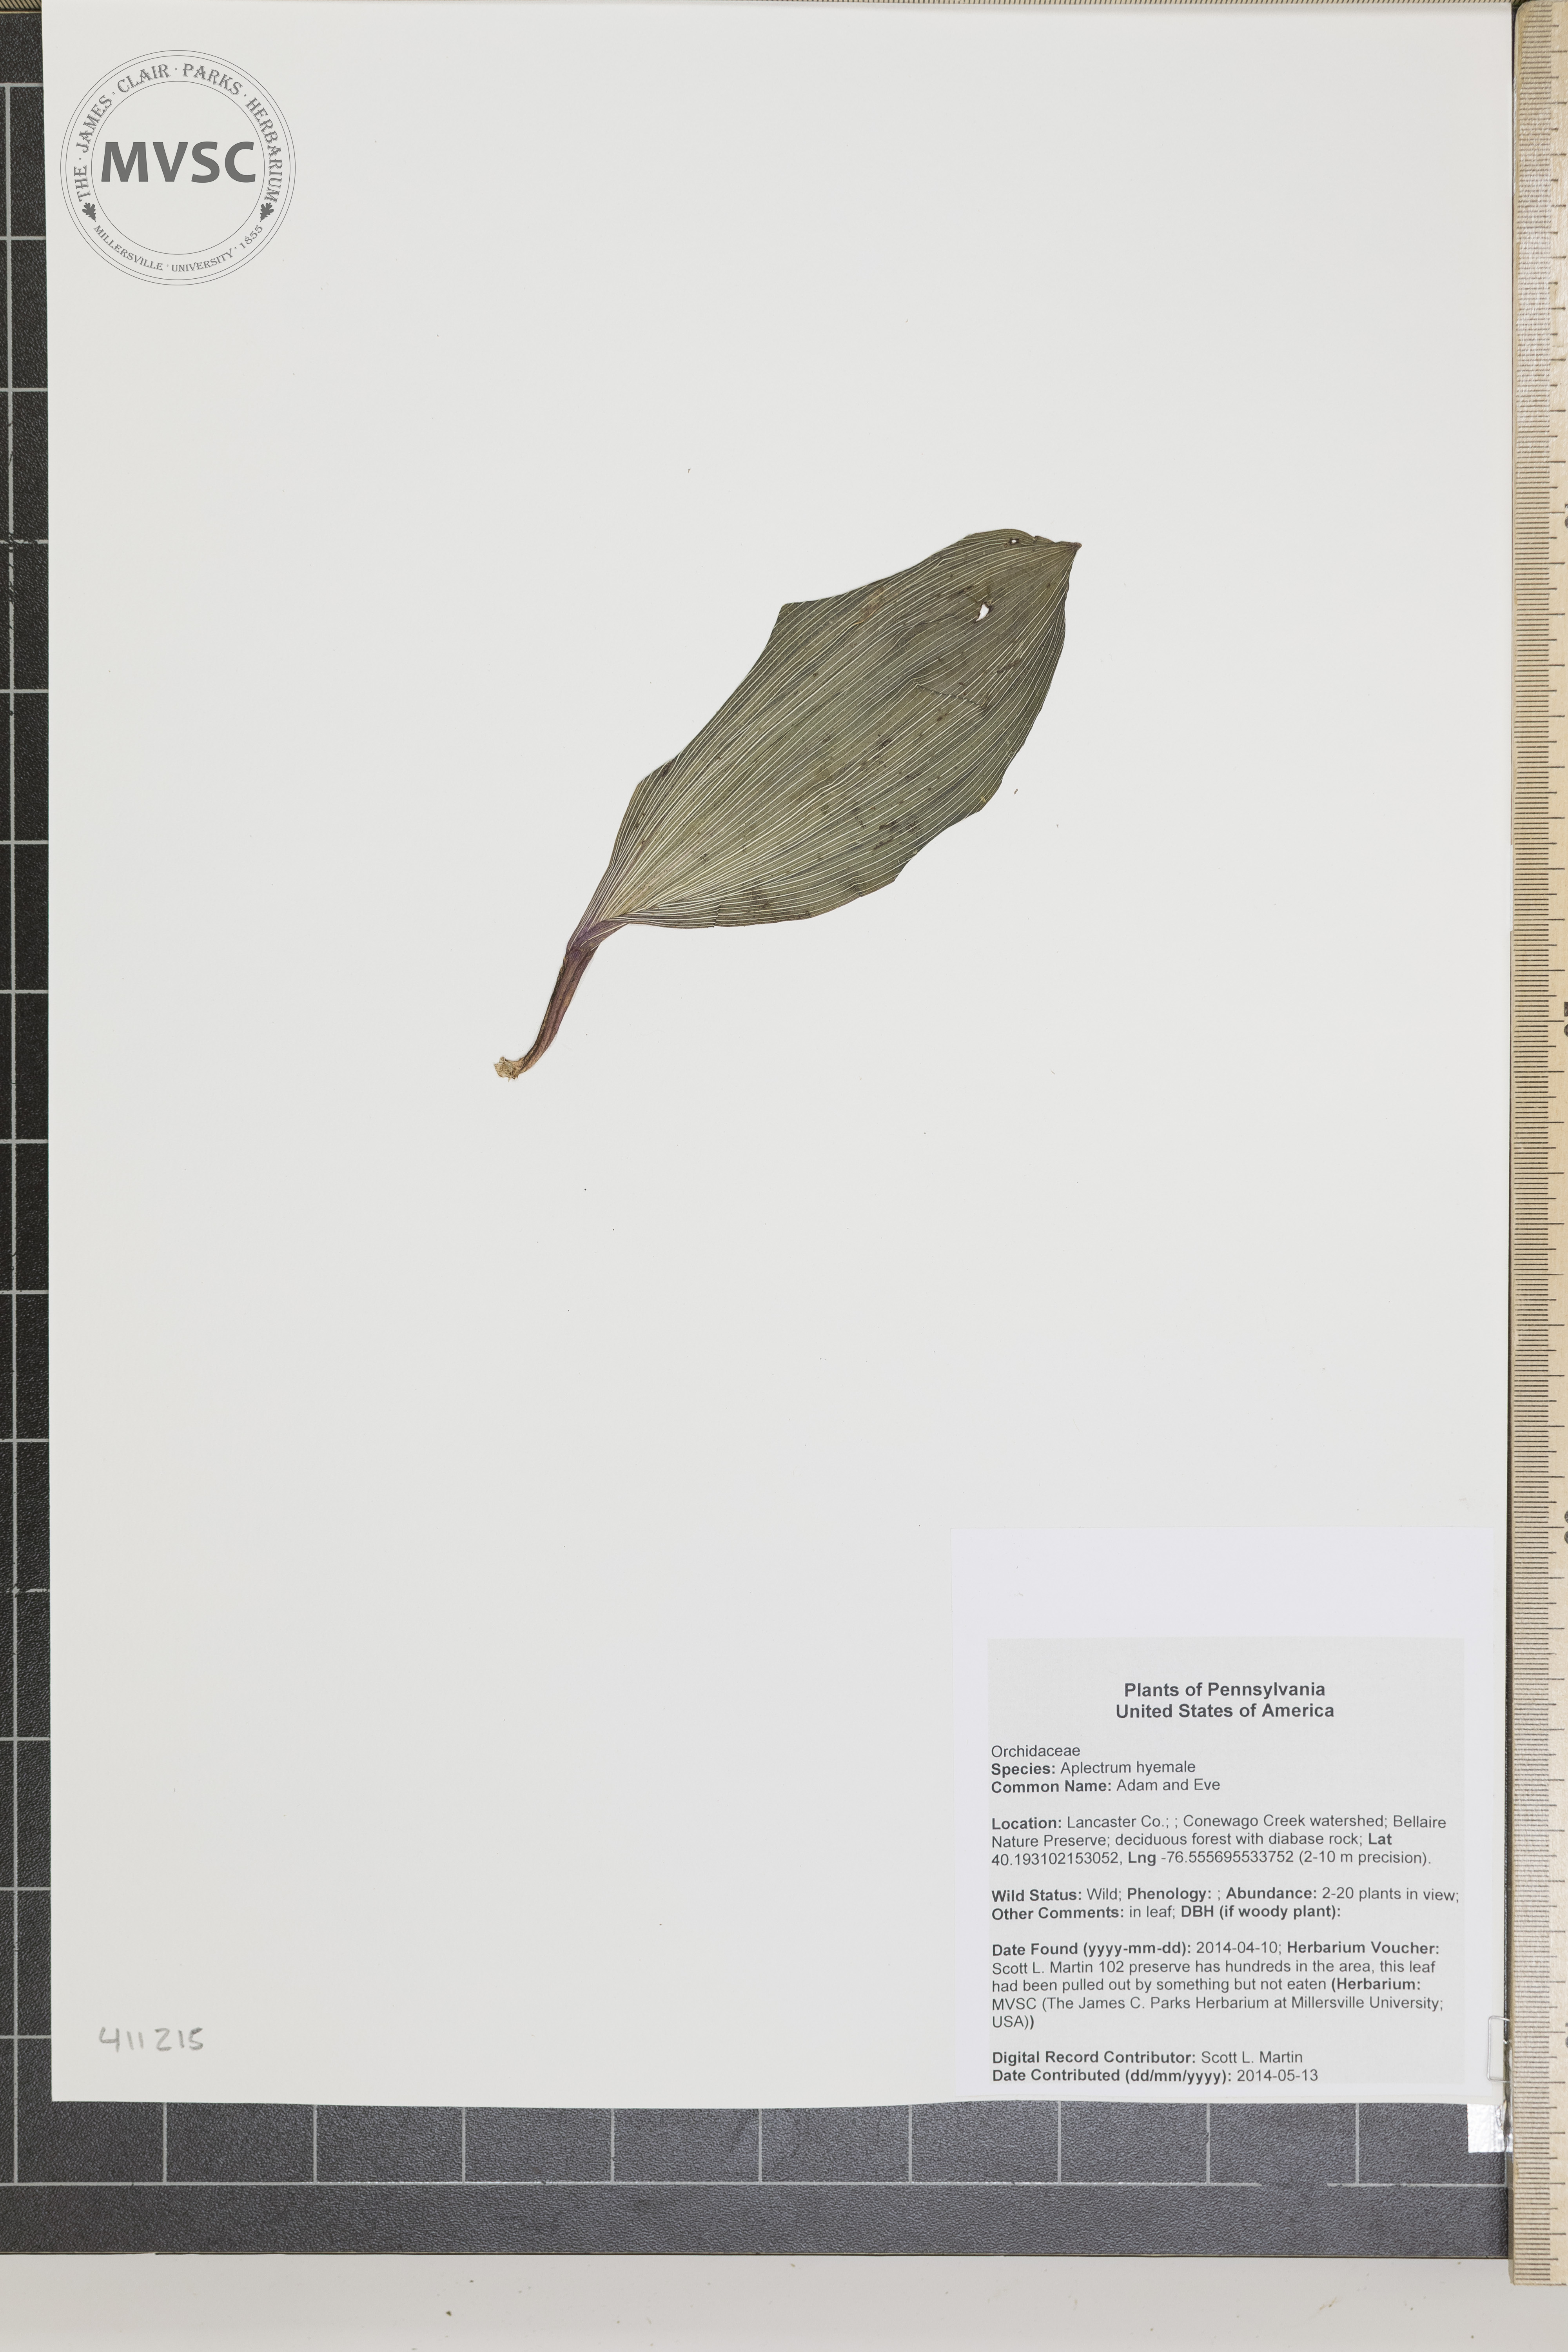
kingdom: Plantae
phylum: Tracheophyta
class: Liliopsida
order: Asparagales
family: Orchidaceae
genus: Aplectrum
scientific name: Aplectrum hyemale
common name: Adam and Eve
